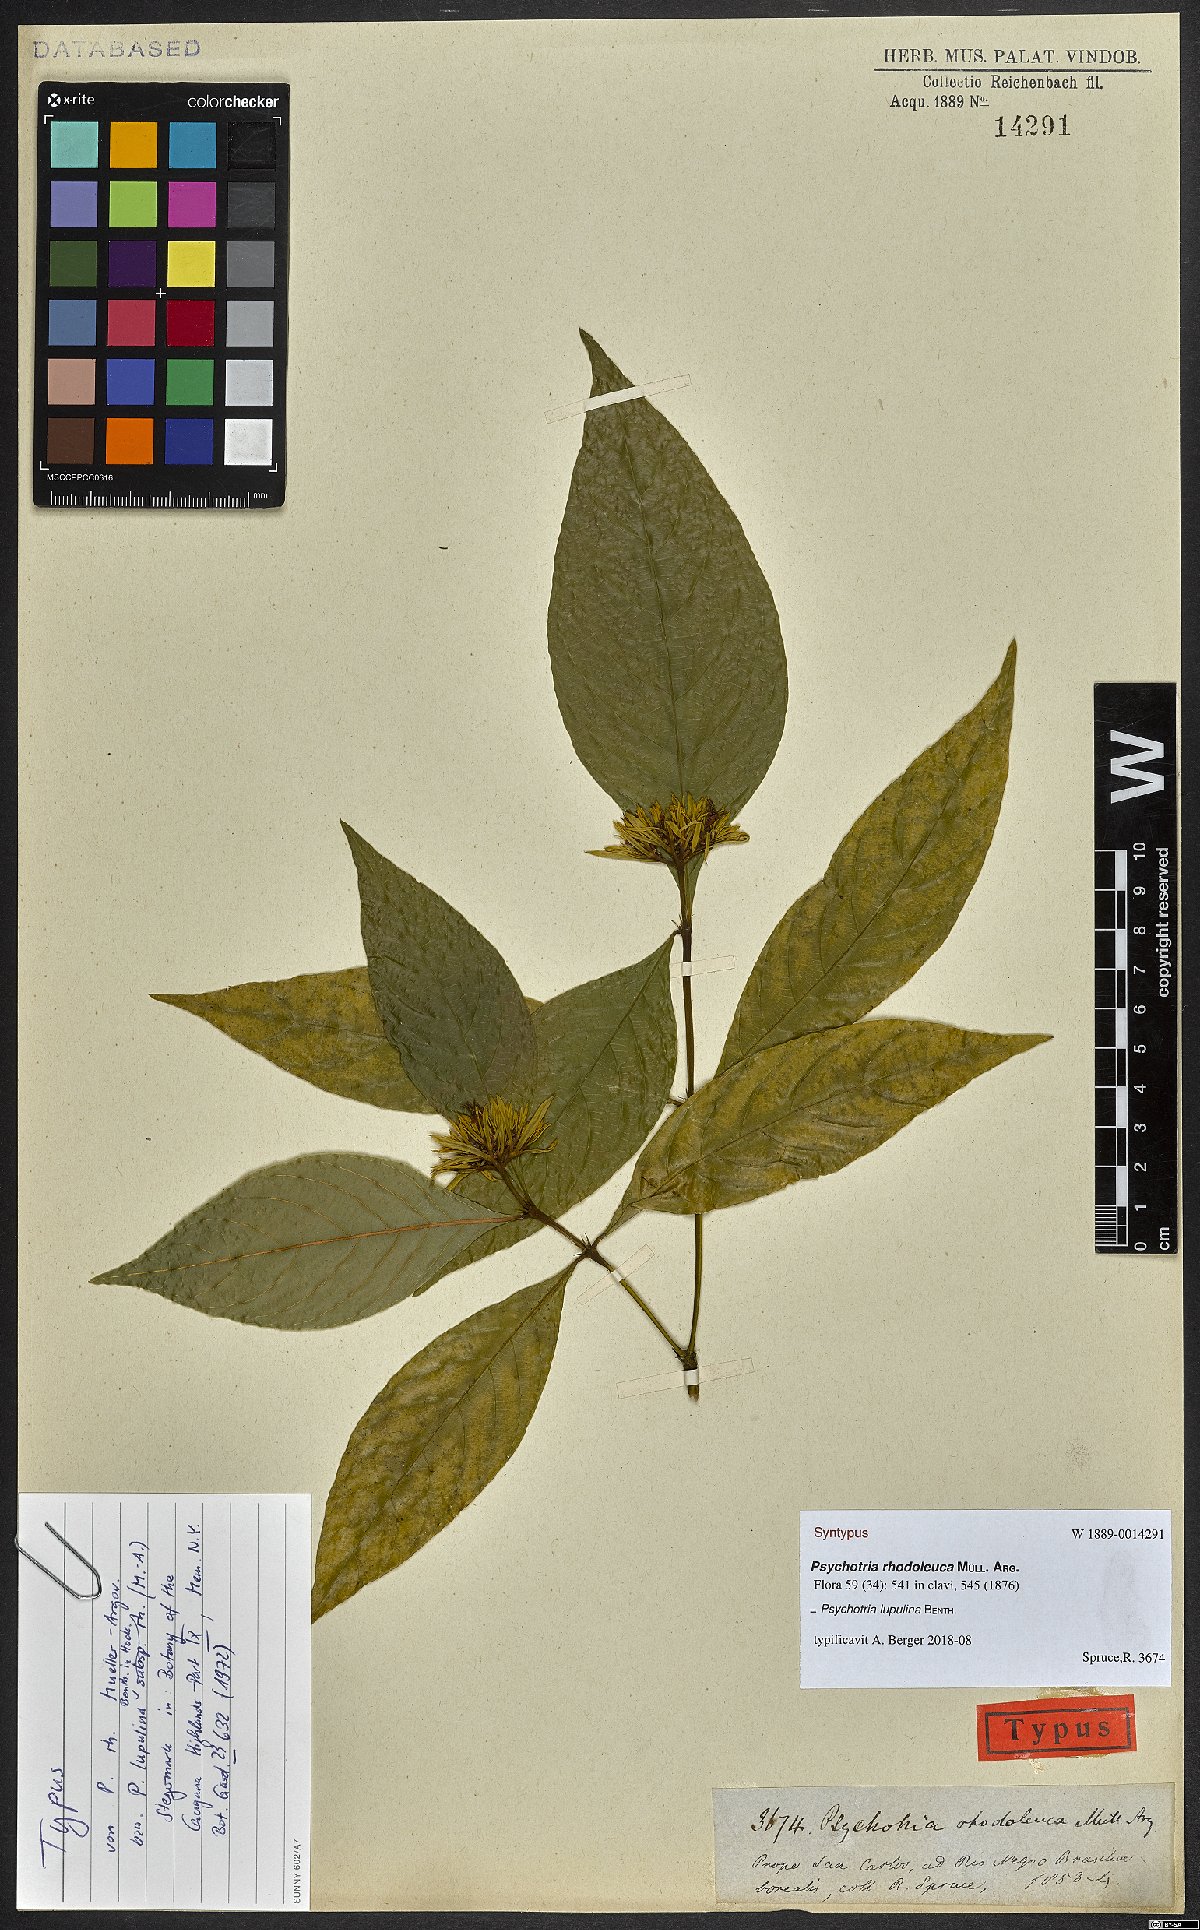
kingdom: Plantae
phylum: Tracheophyta
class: Magnoliopsida
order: Gentianales
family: Rubiaceae
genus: Palicourea
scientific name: Palicourea justiciifolia
